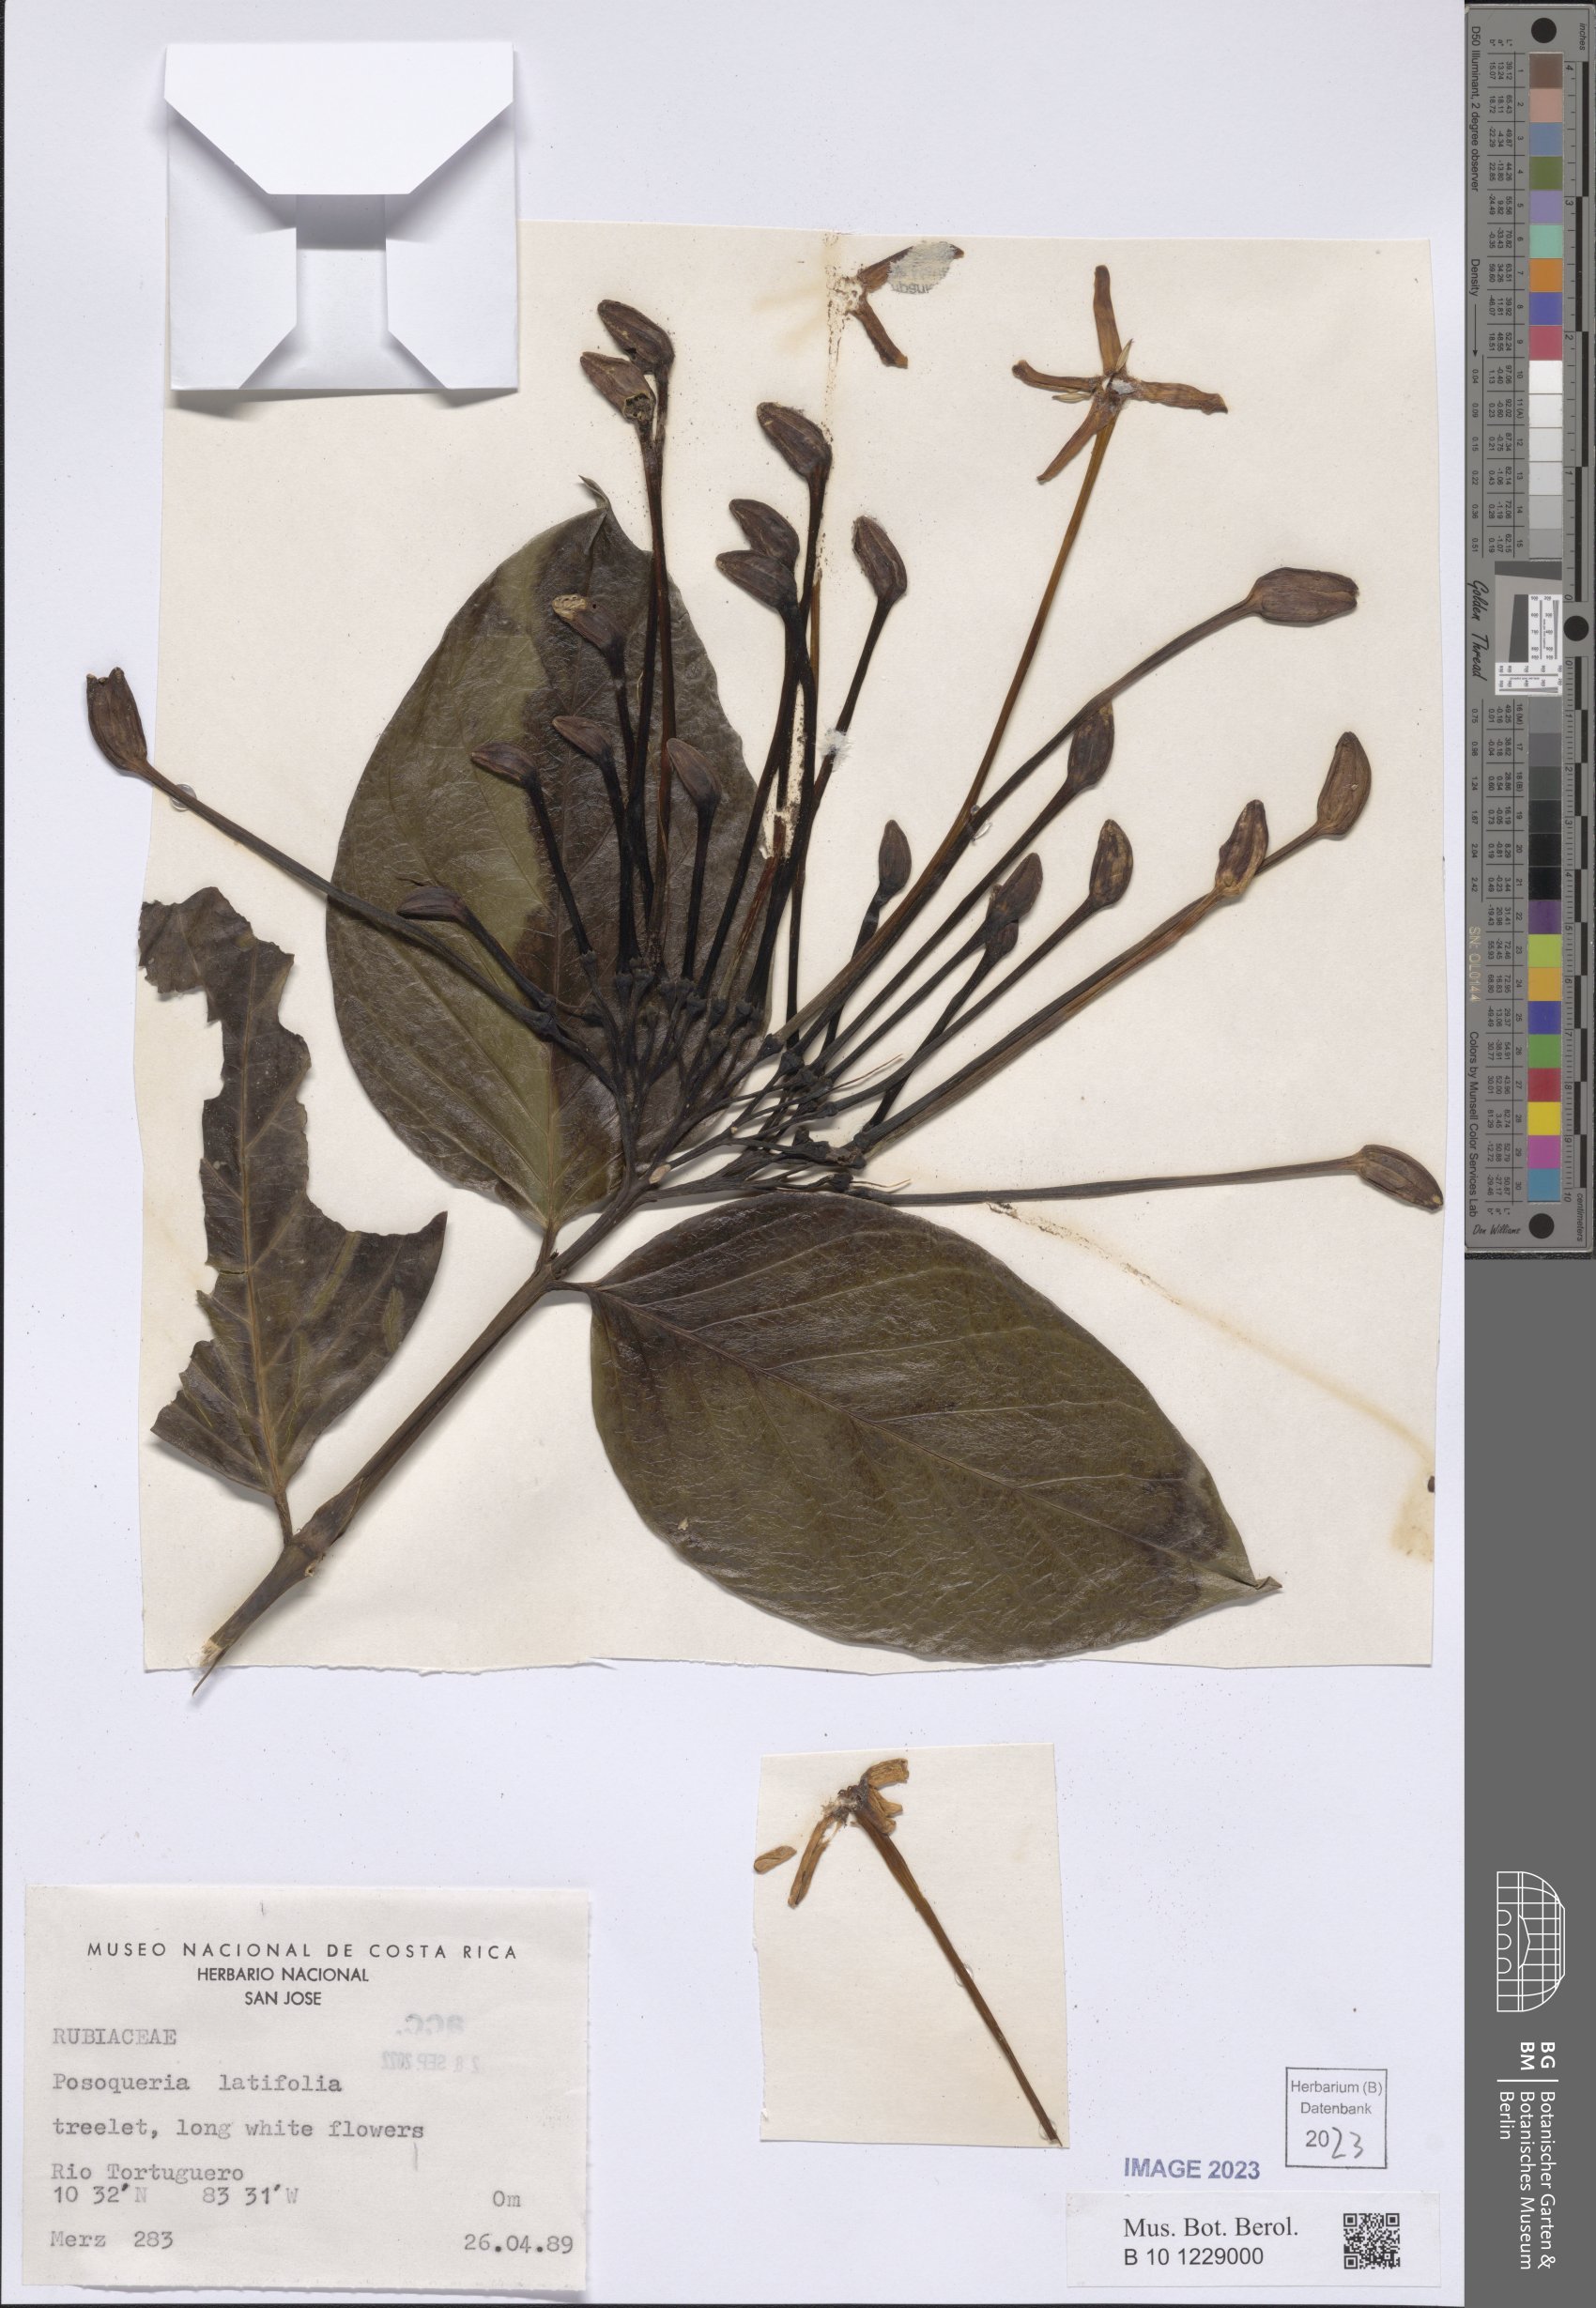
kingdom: Plantae
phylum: Tracheophyta
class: Magnoliopsida
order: Gentianales
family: Rubiaceae
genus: Posoqueria
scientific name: Posoqueria latifolia
